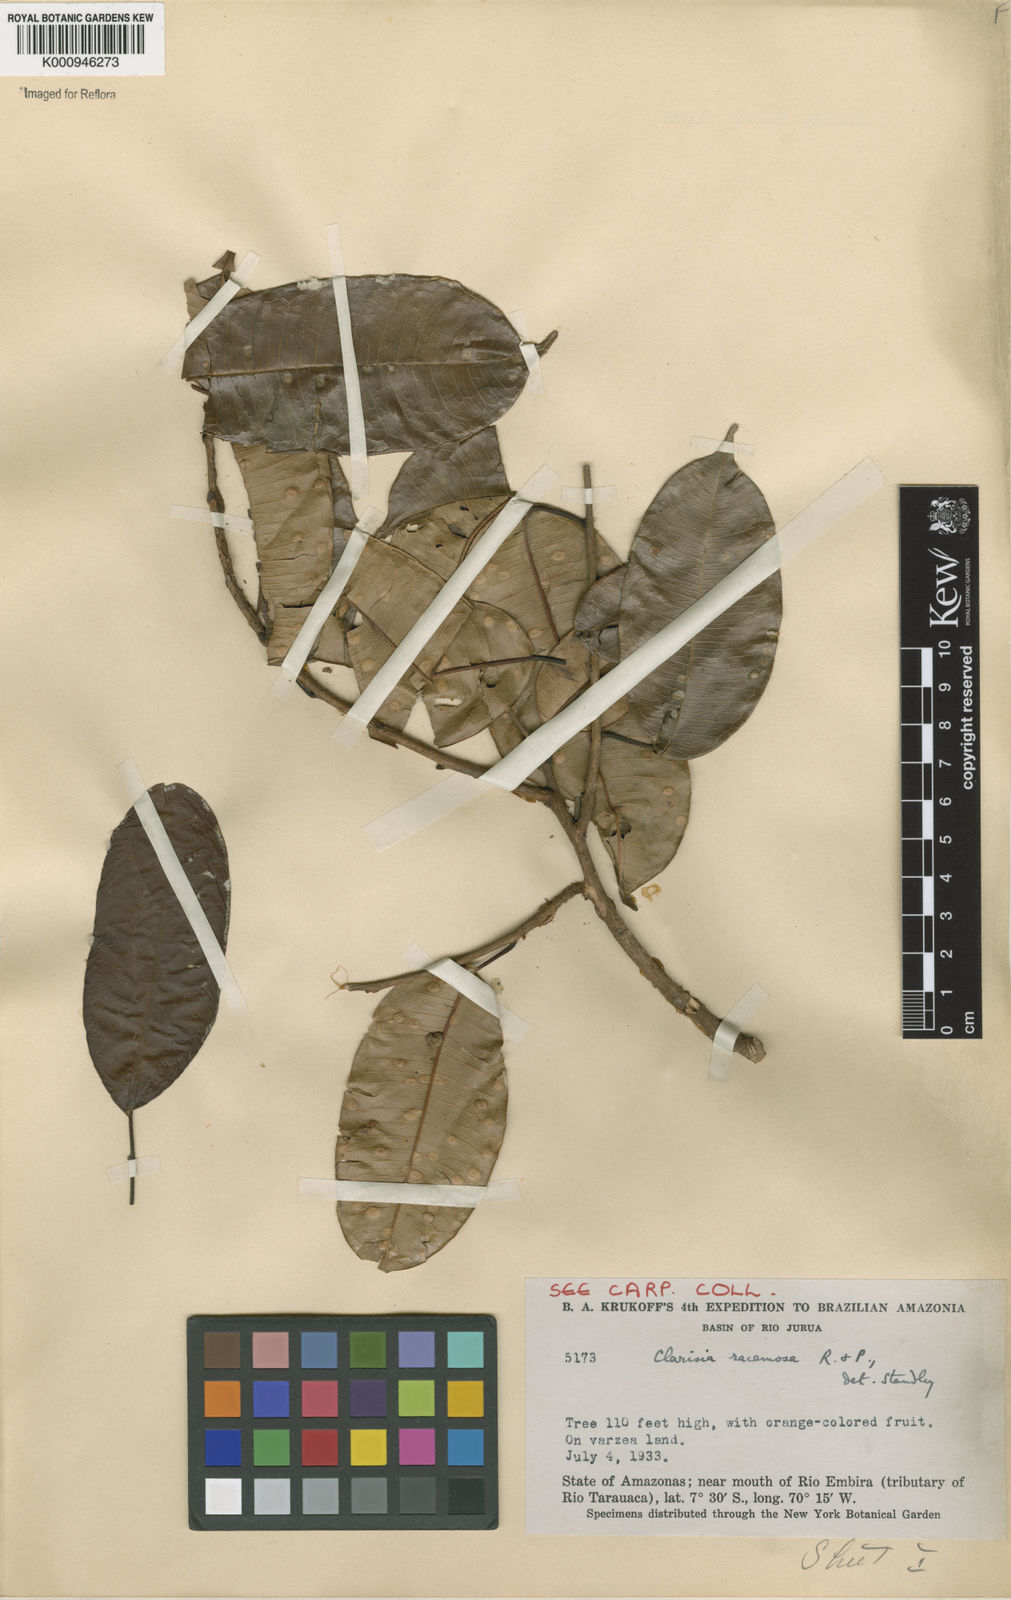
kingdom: Plantae
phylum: Tracheophyta
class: Magnoliopsida
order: Rosales
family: Moraceae
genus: Clarisia
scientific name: Clarisia racemosa
